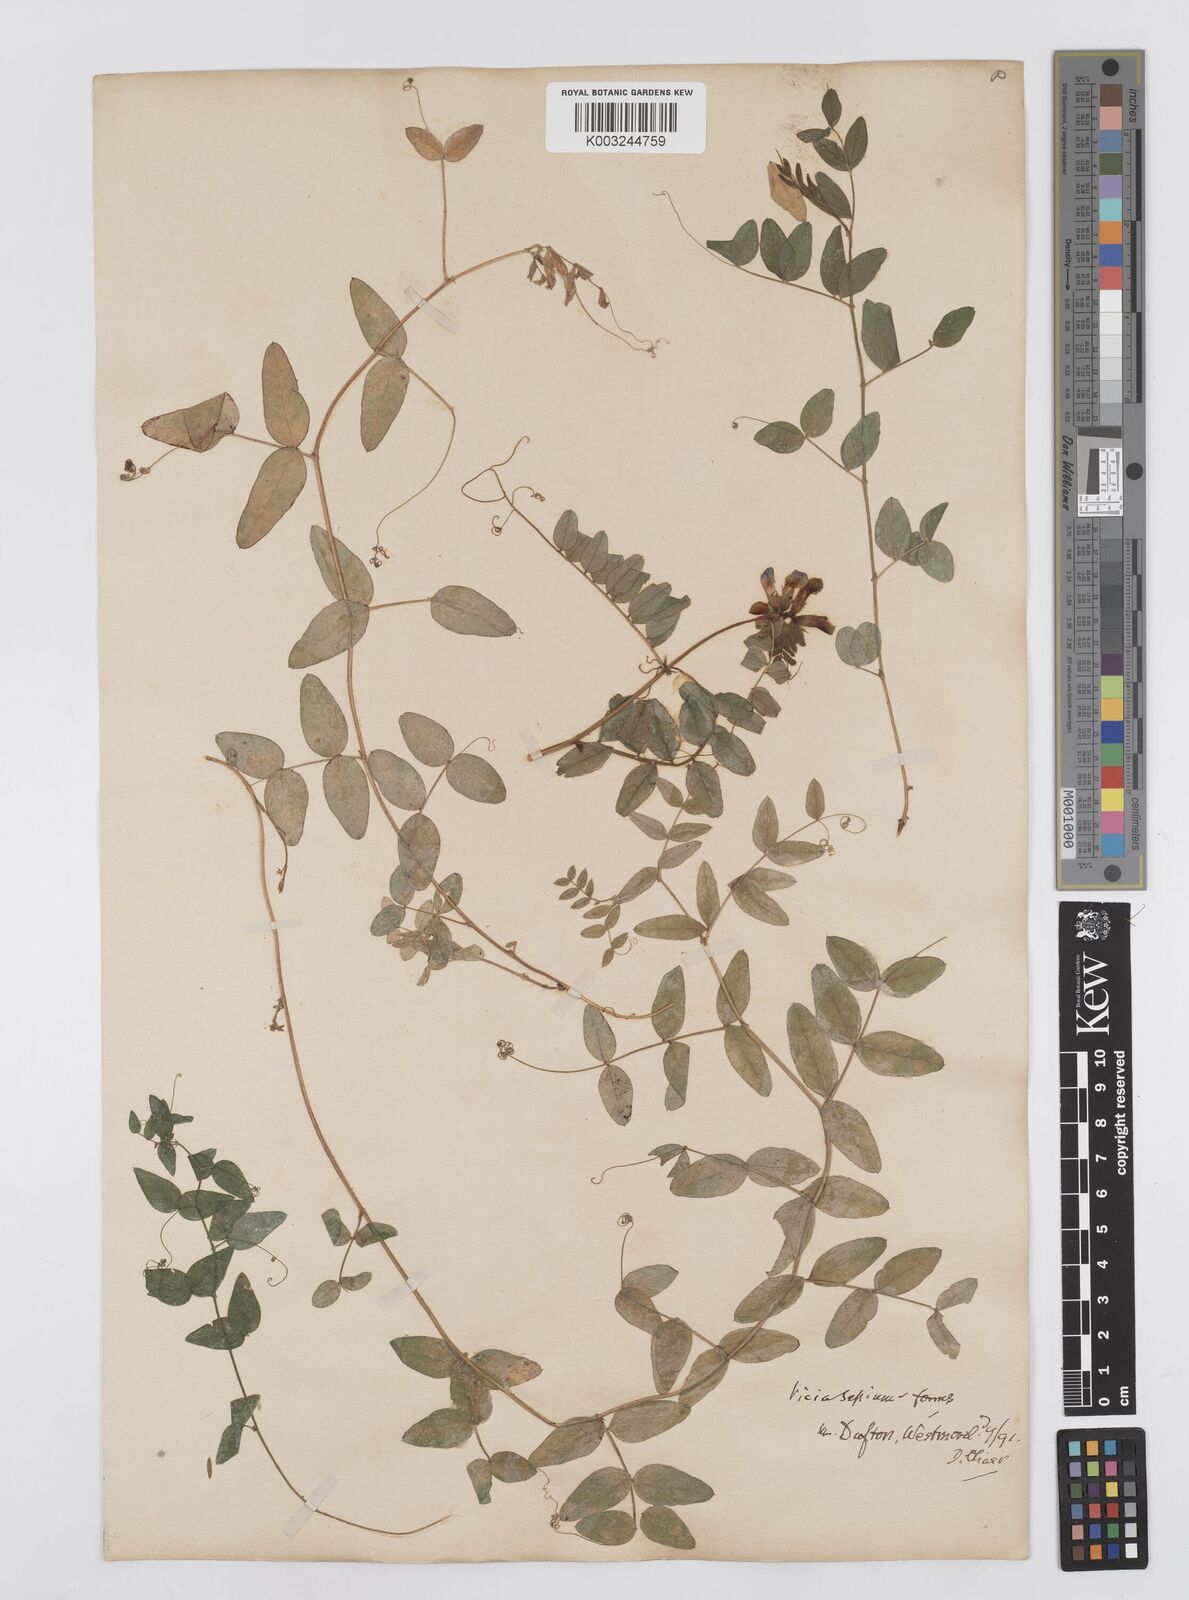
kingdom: Plantae
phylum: Tracheophyta
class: Magnoliopsida
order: Fabales
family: Fabaceae
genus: Vicia
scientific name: Vicia
